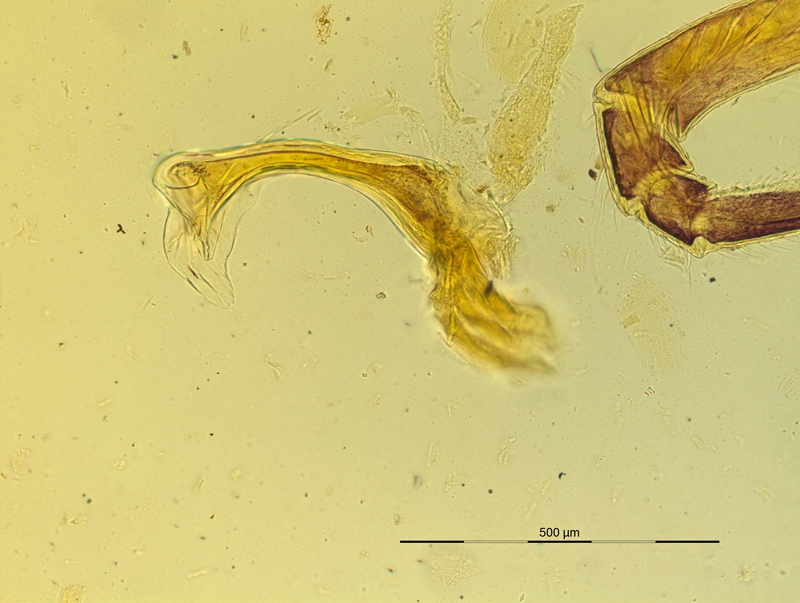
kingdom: Animalia
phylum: Arthropoda
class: Diplopoda
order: Chordeumatida
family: Craspedosomatidae
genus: Pyrgocyphosoma
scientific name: Pyrgocyphosoma tridentinum
